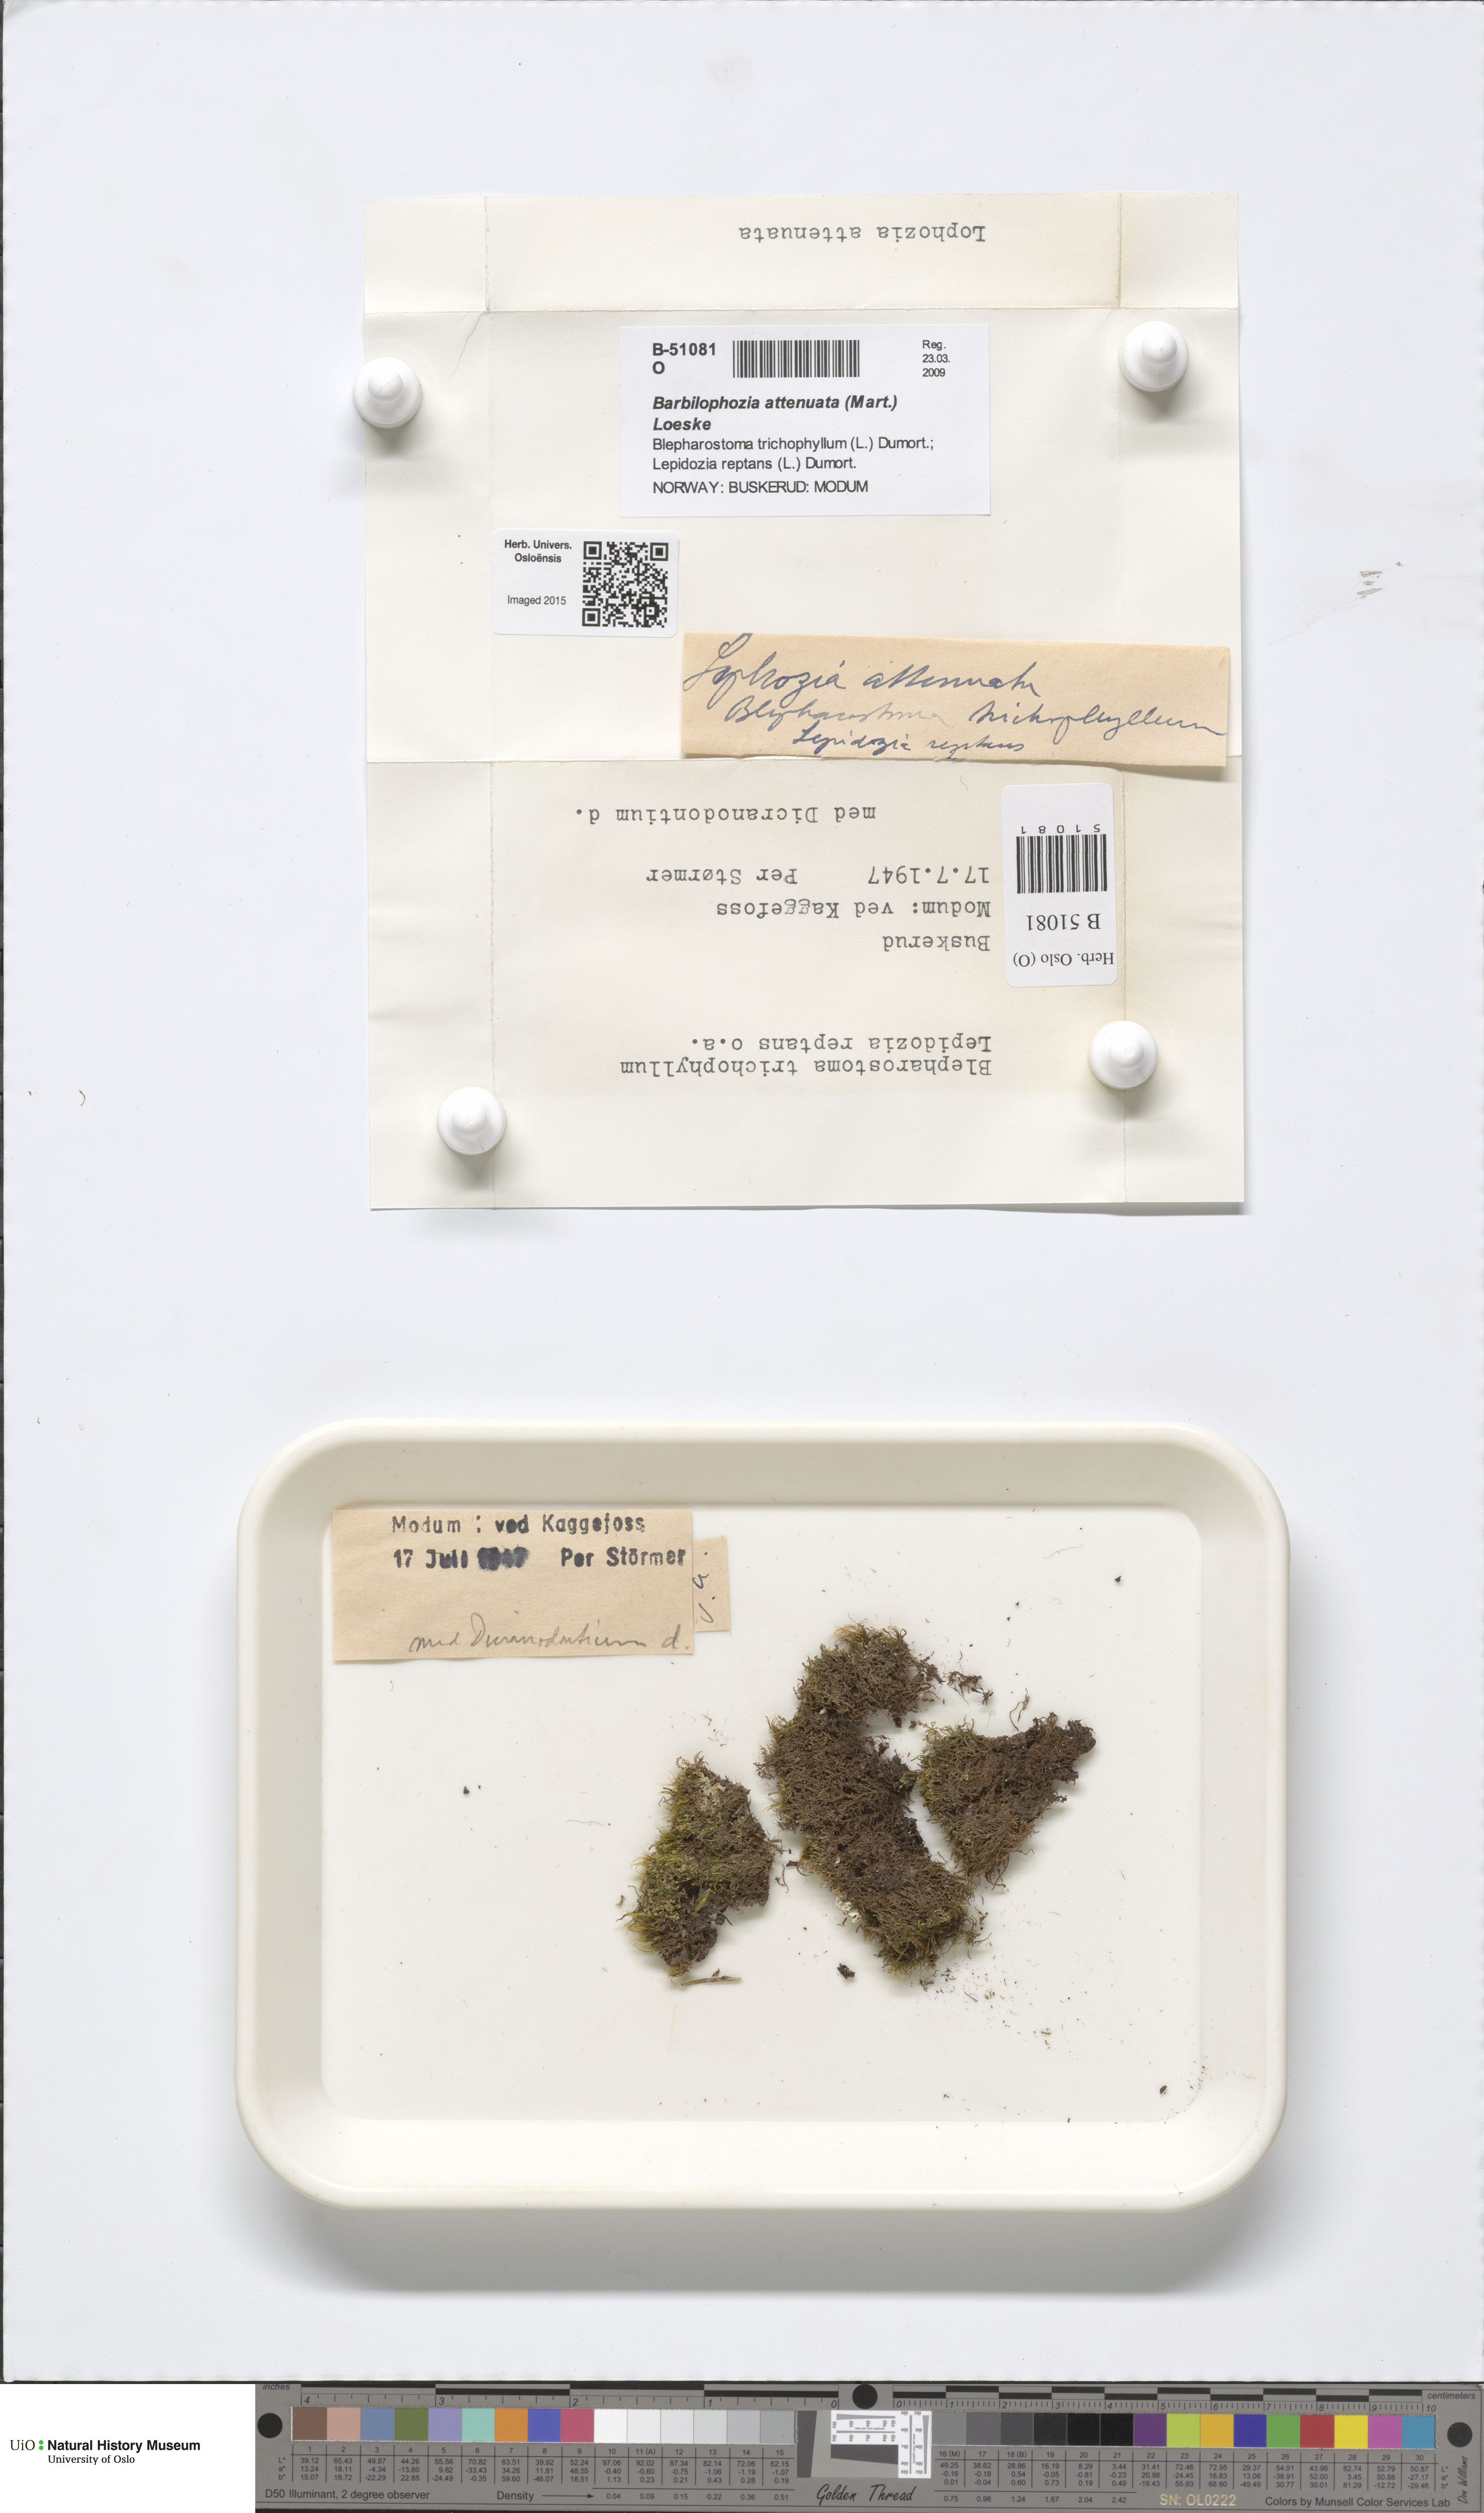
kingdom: Plantae
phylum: Marchantiophyta
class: Jungermanniopsida
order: Jungermanniales
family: Anastrophyllaceae
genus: Neoorthocaulis
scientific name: Neoorthocaulis attenuatus
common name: Trunk pawwort
